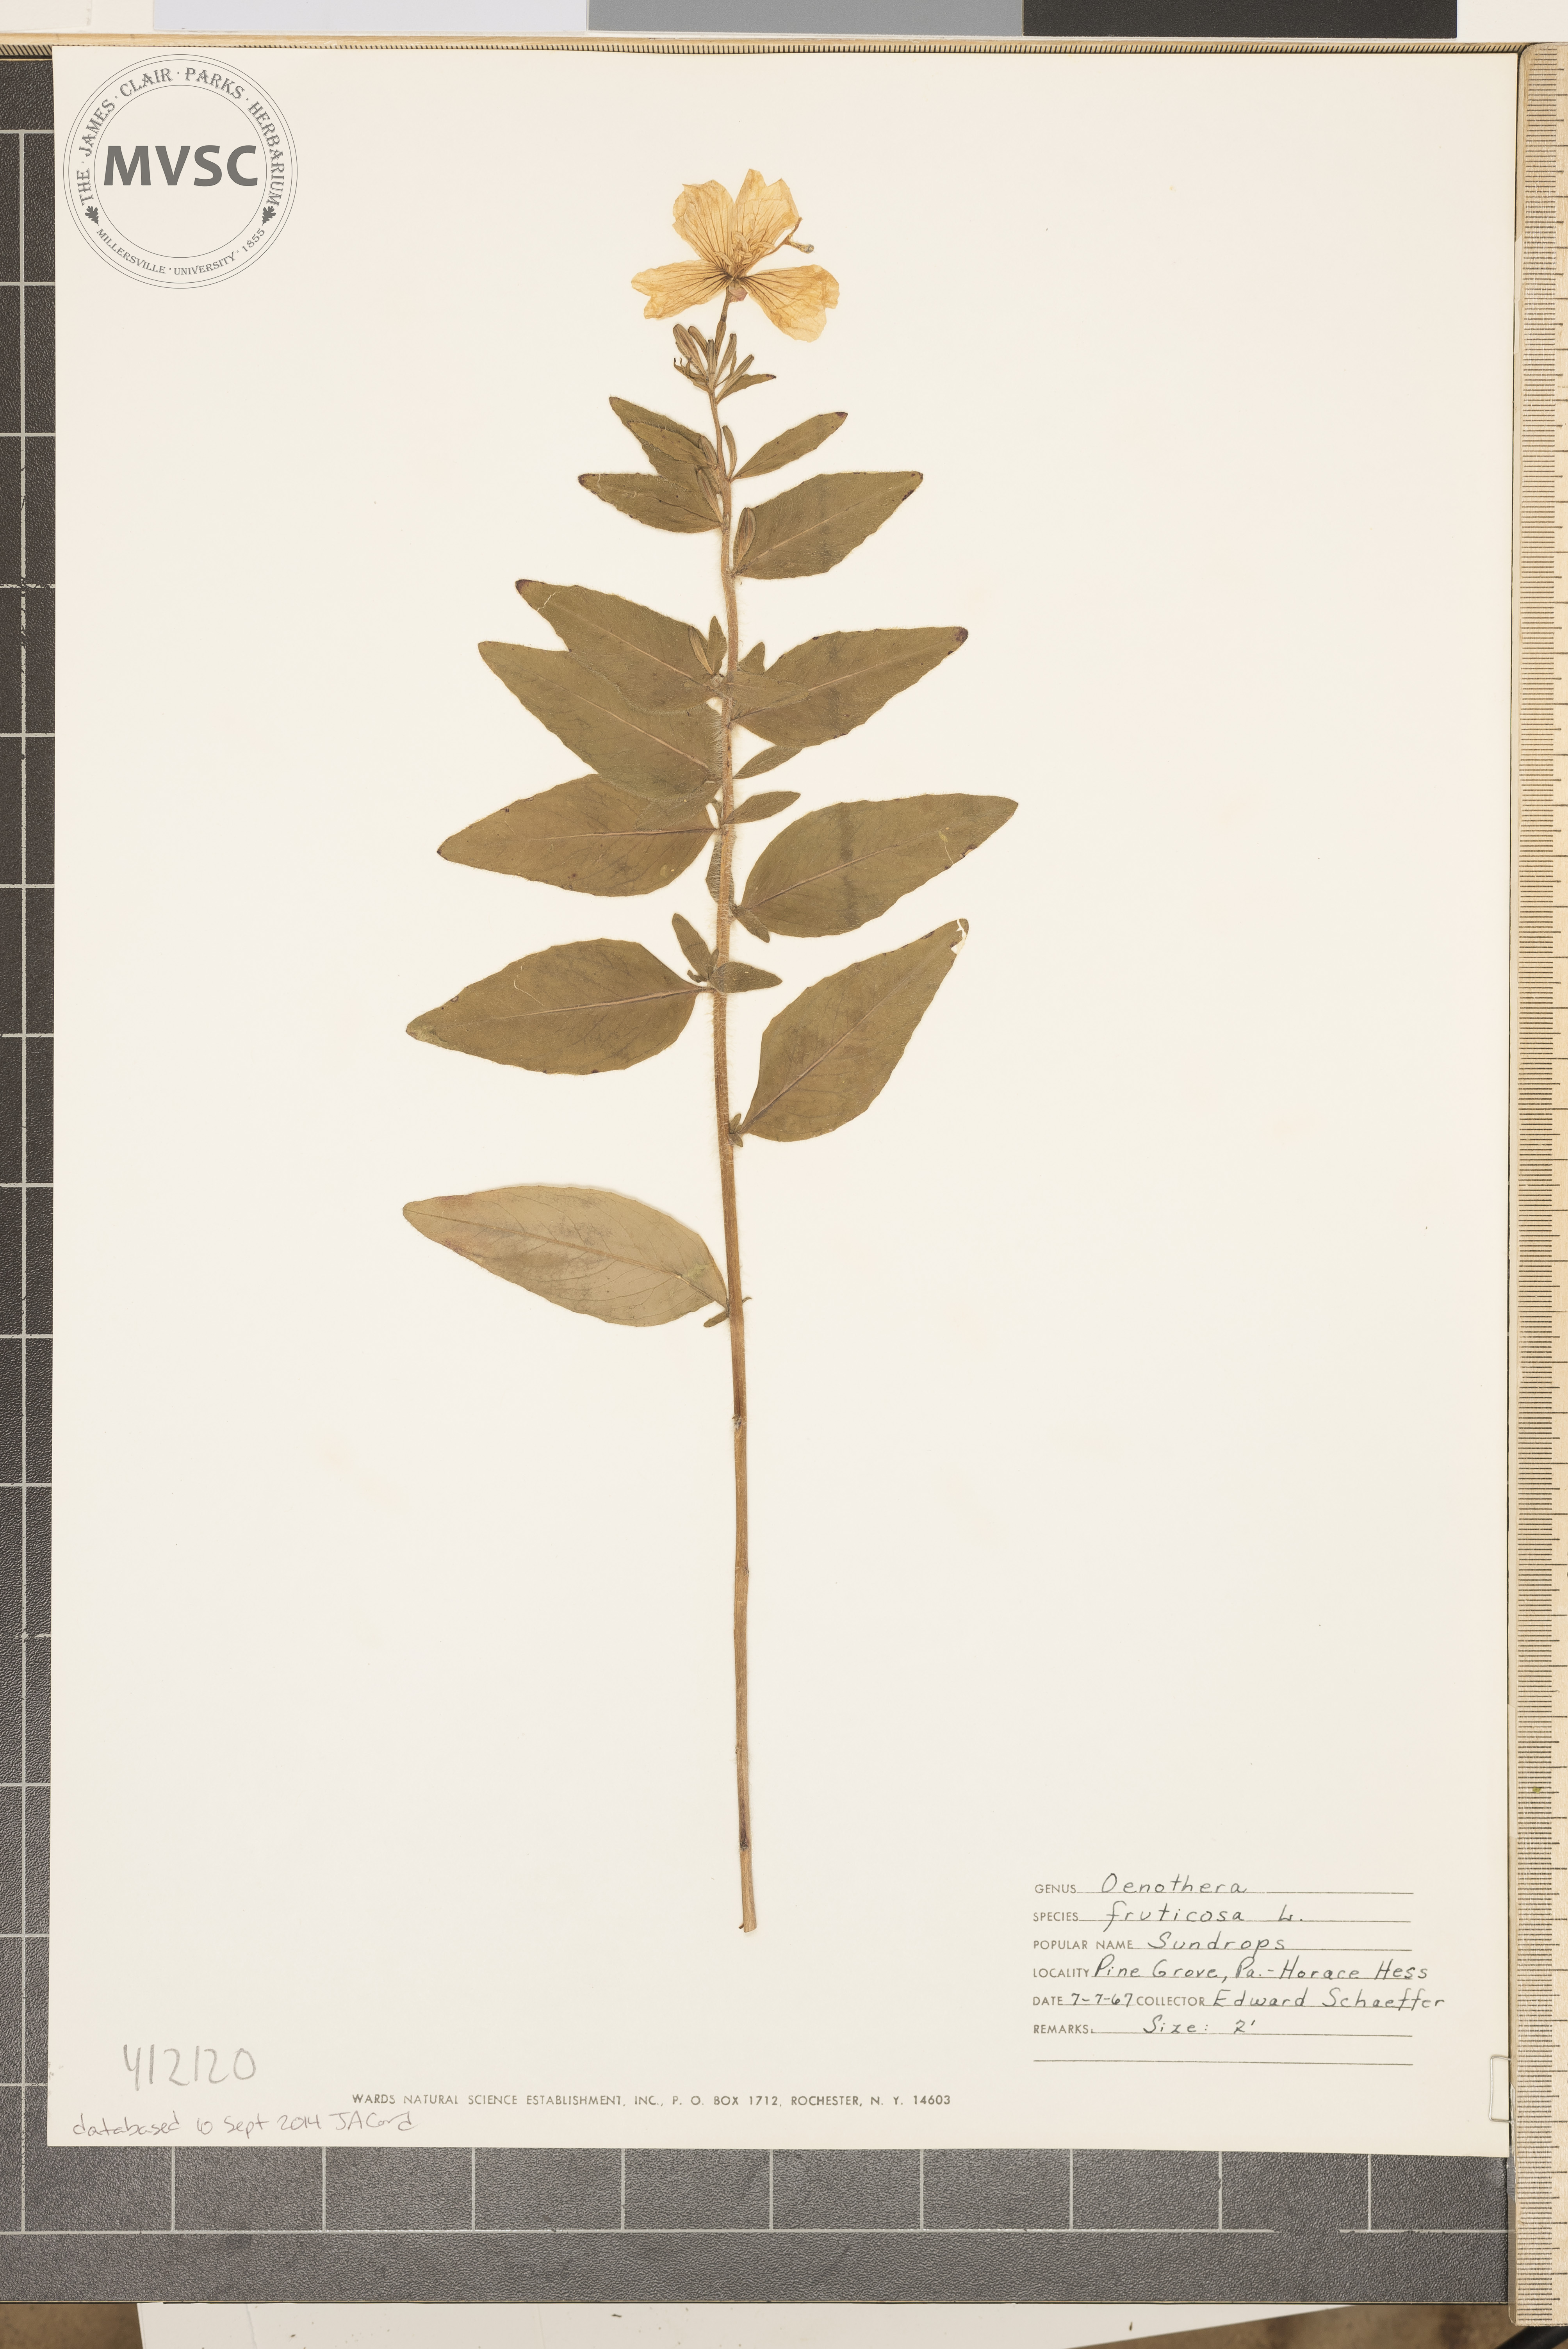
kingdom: Plantae
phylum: Tracheophyta
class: Magnoliopsida
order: Myrtales
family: Onagraceae
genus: Oenothera
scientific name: Oenothera pilosella
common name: Sundrops
